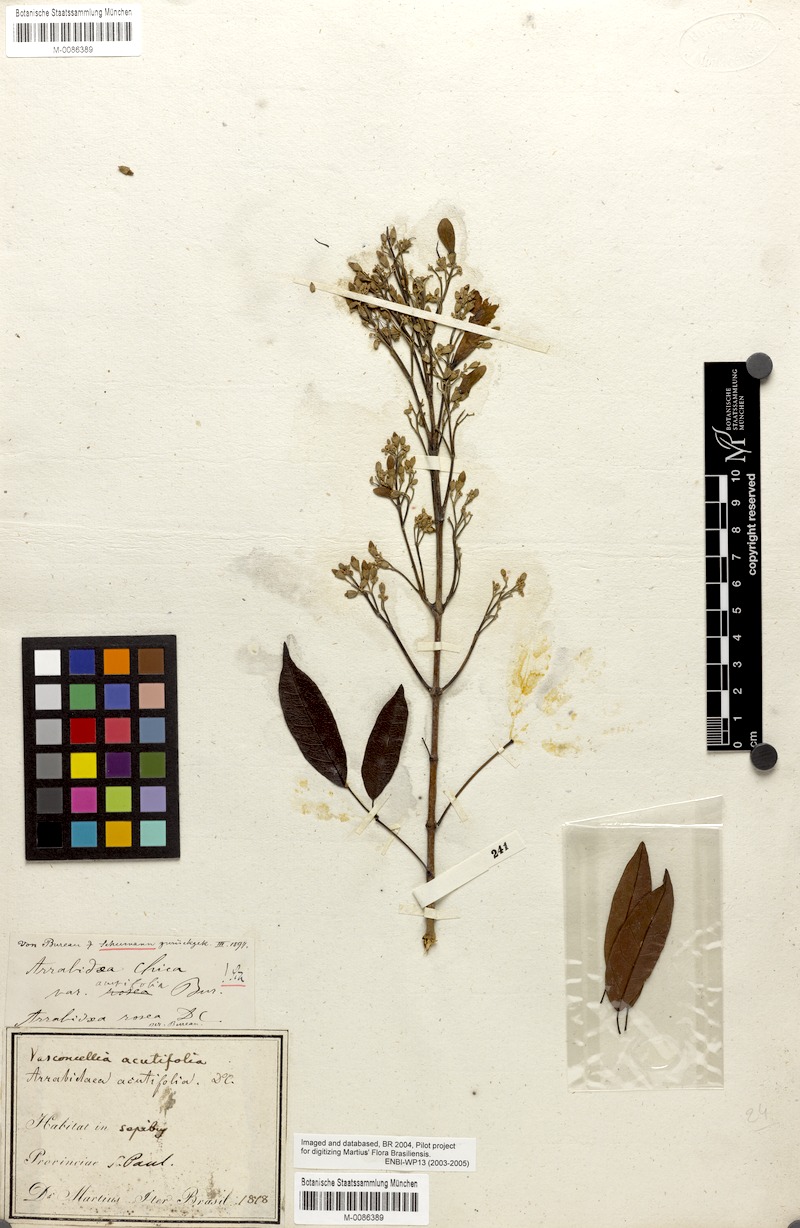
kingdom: Plantae
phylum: Tracheophyta
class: Magnoliopsida
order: Lamiales
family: Bignoniaceae
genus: Fridericia
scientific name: Fridericia chica
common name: Cricketvine
